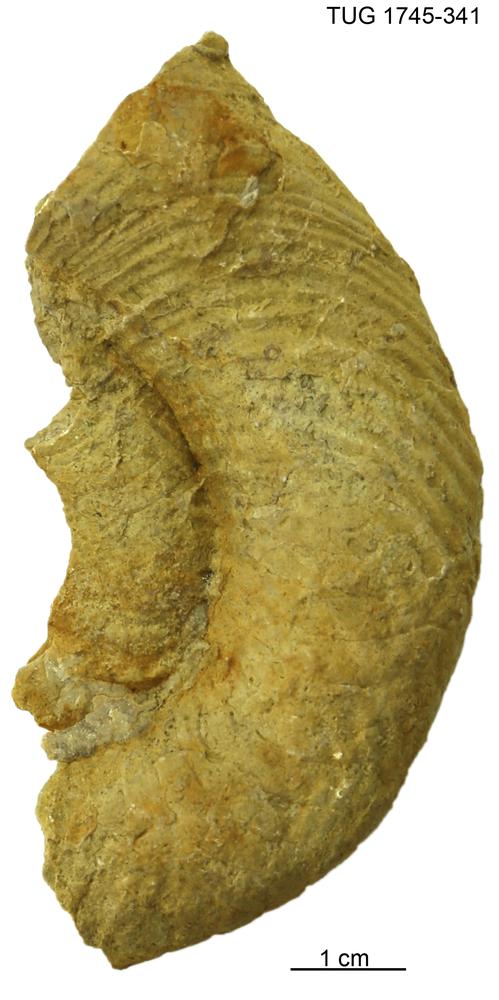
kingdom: Animalia
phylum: Mollusca
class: Cephalopoda
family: Tarphyceratidae
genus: Rectanguloceras
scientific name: Rectanguloceras
